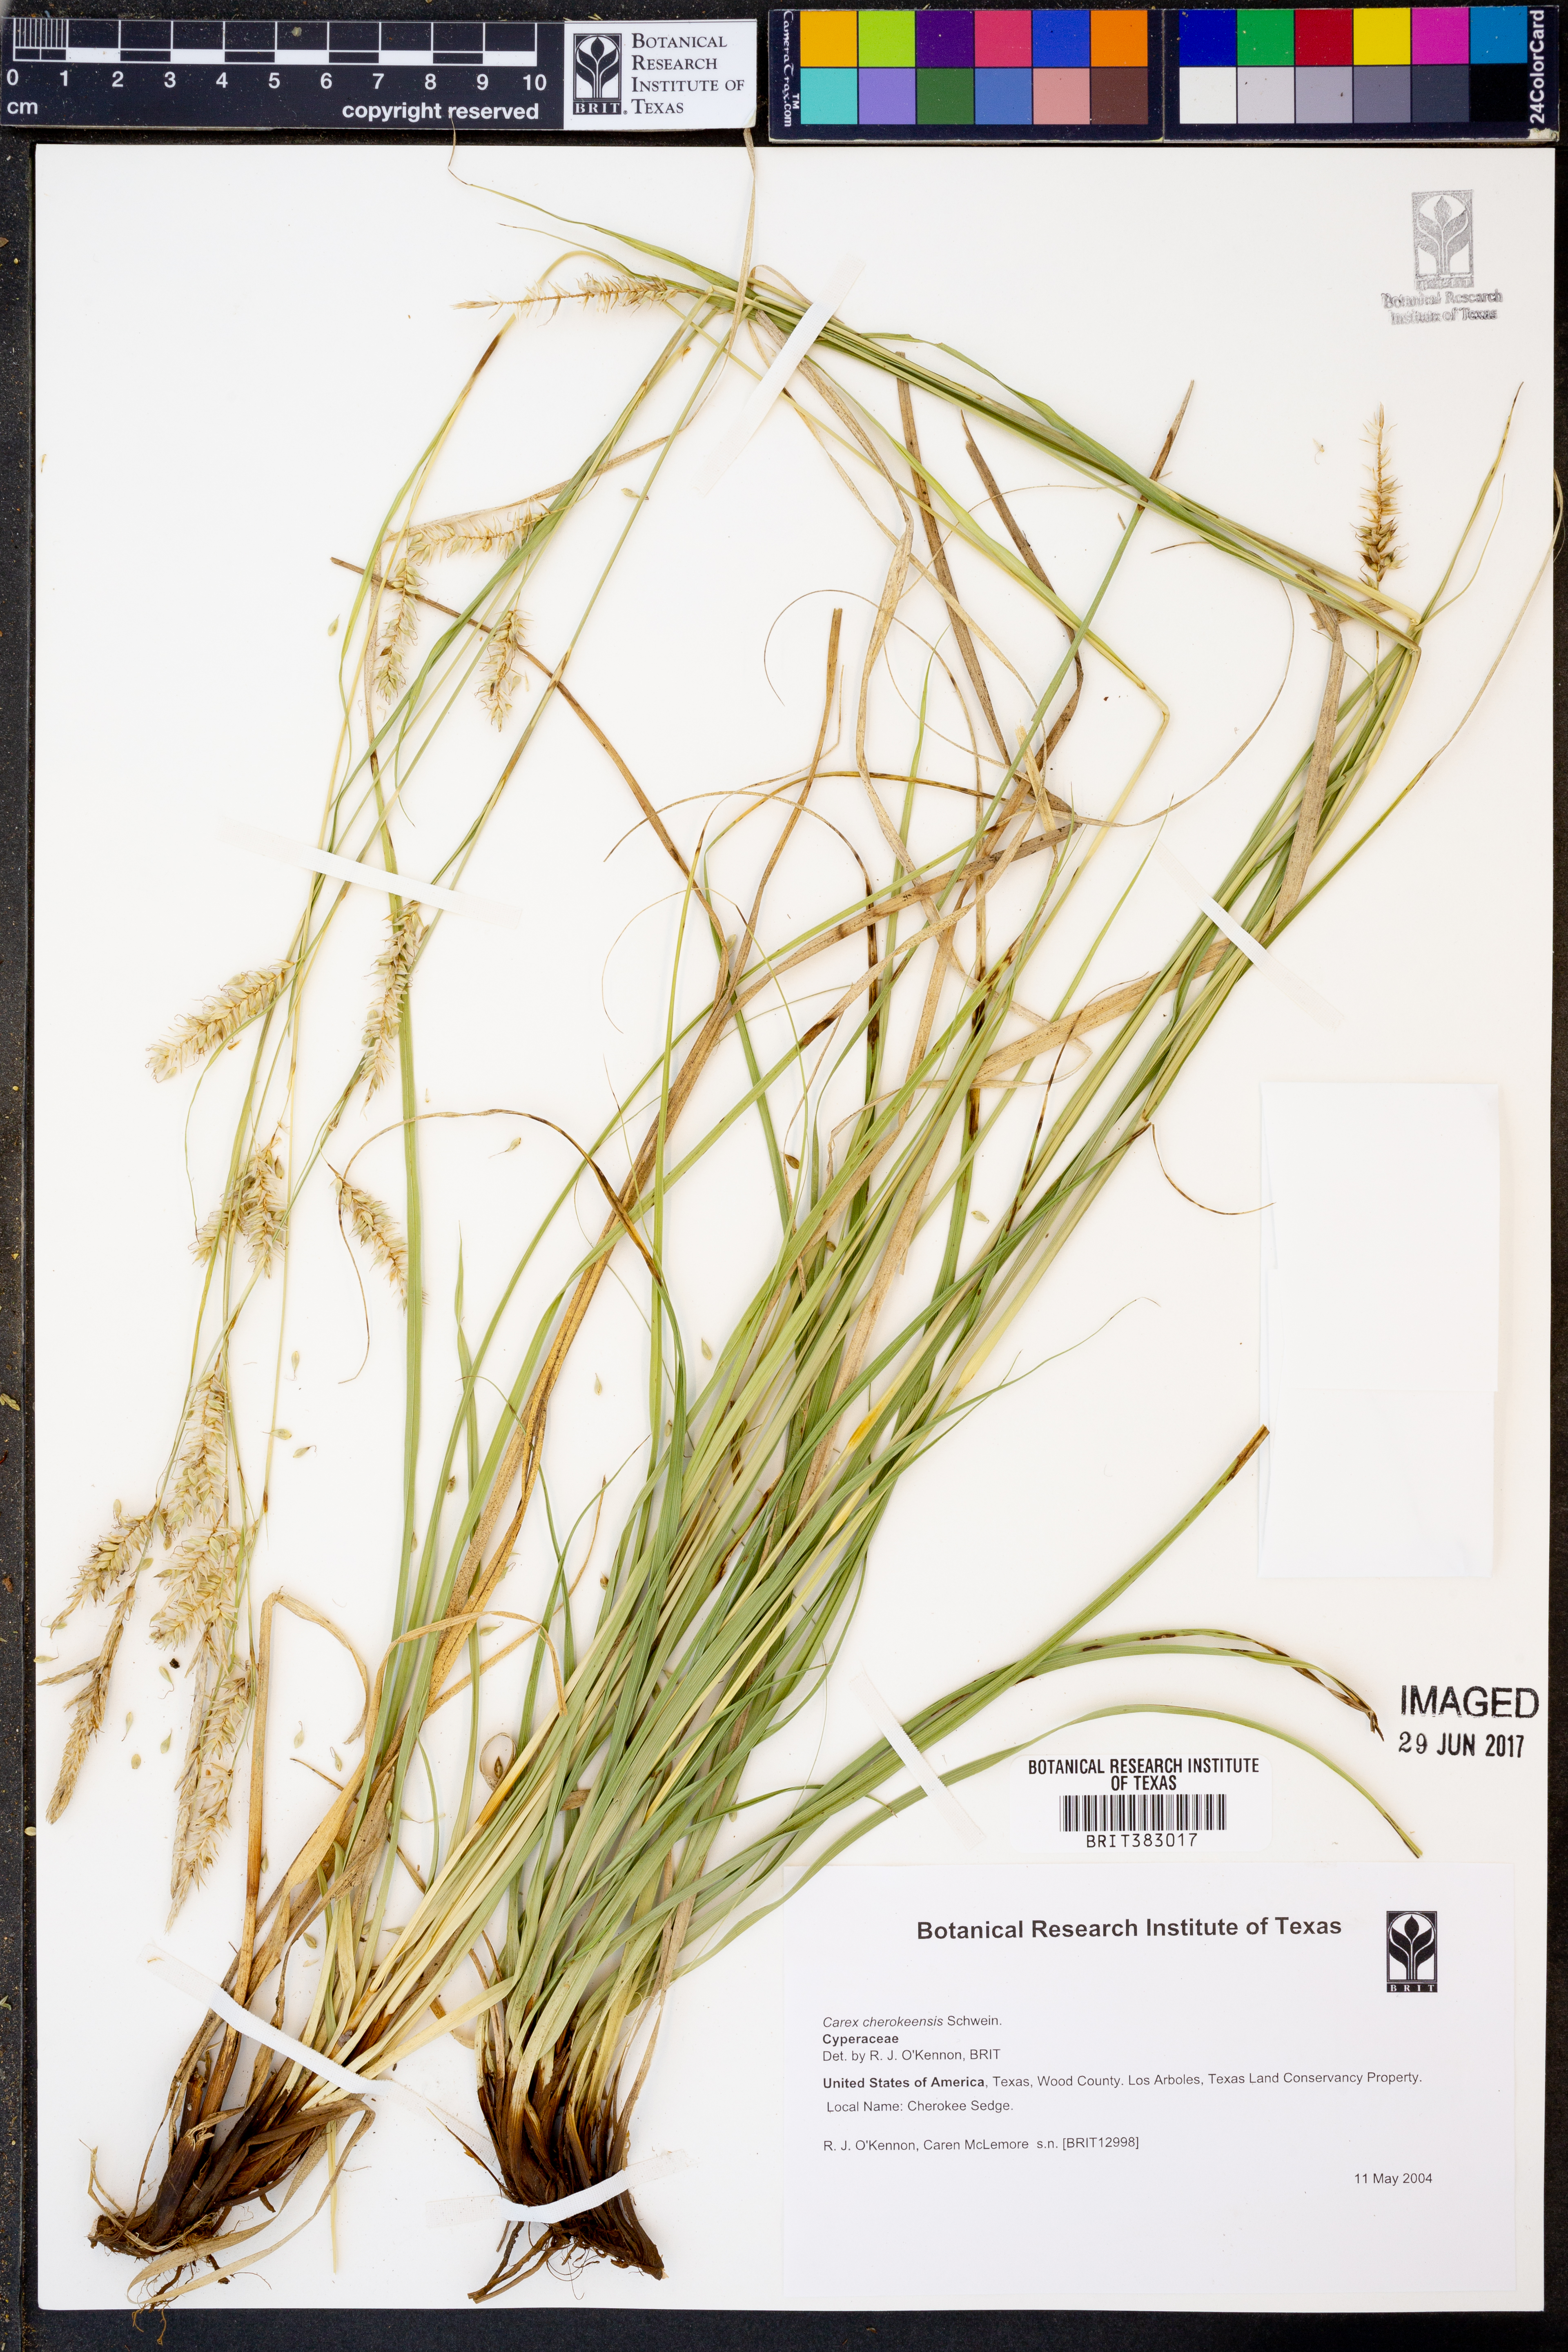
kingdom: Plantae
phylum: Tracheophyta
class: Liliopsida
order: Poales
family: Cyperaceae
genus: Carex
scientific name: Carex cherokeensis
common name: Cherokee sedge
